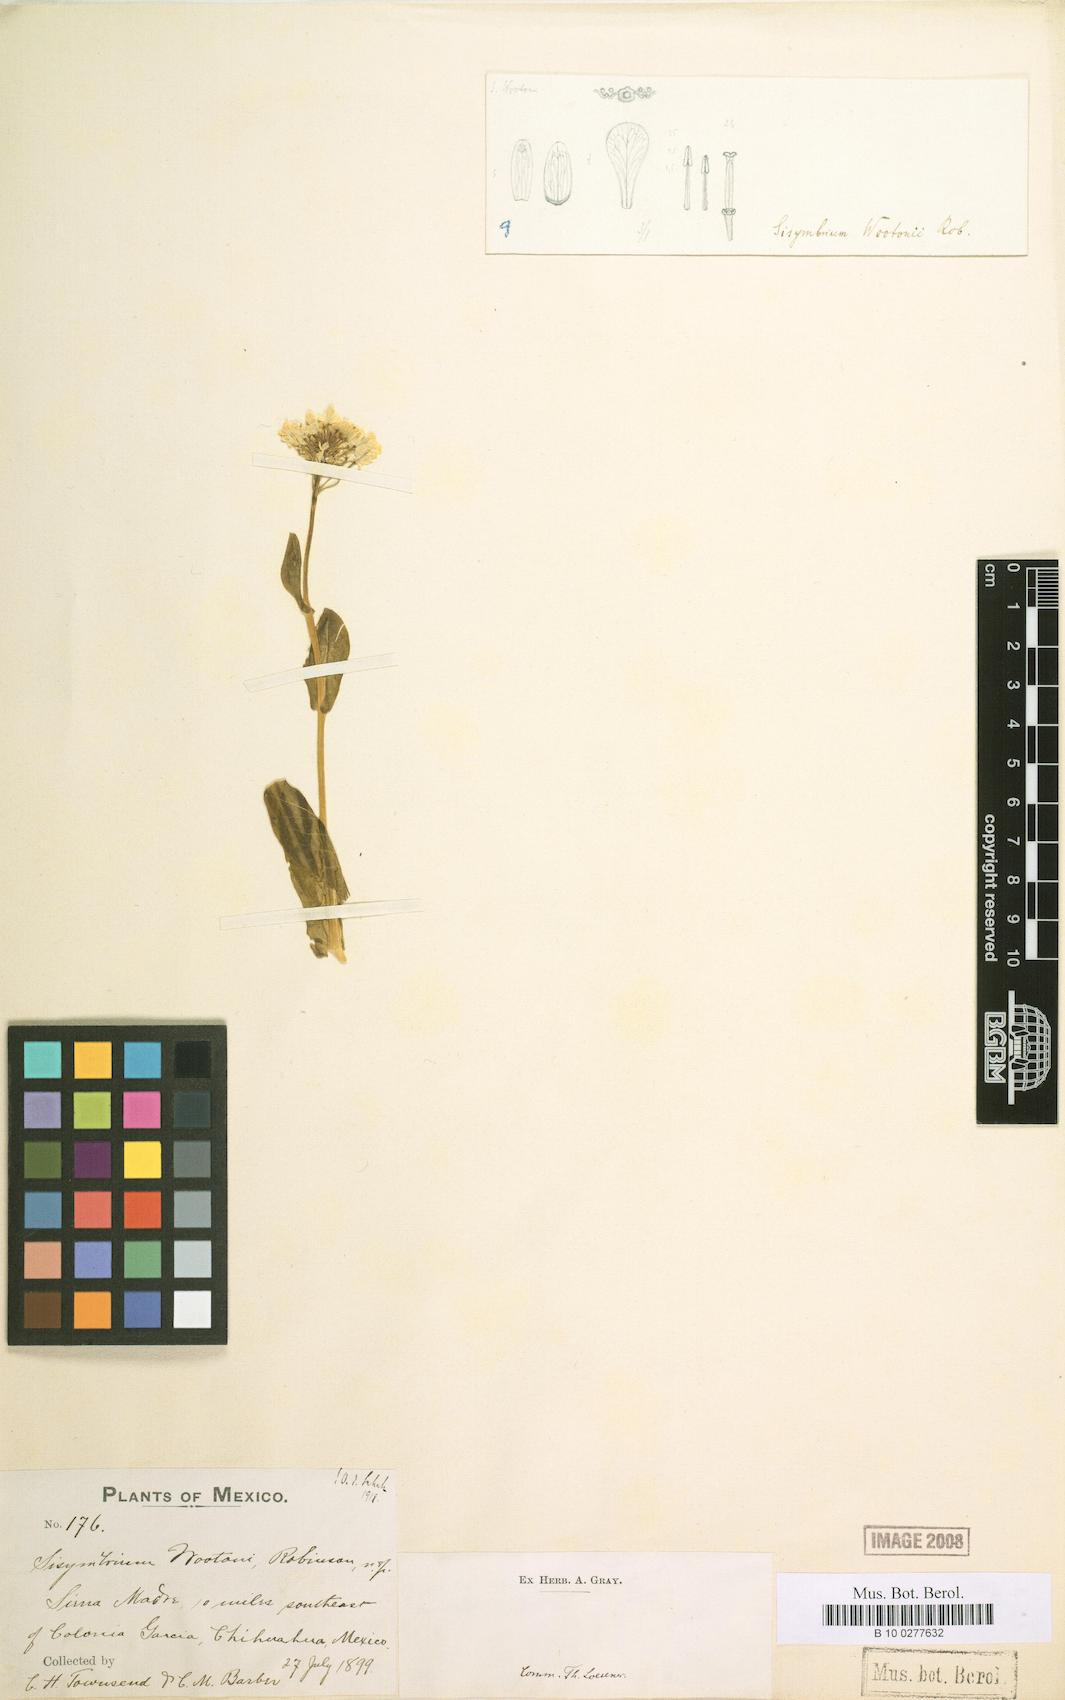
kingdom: Plantae
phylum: Tracheophyta
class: Magnoliopsida
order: Brassicales
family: Brassicaceae
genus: Thelypodiopsis
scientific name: Thelypodiopsis wootonii
